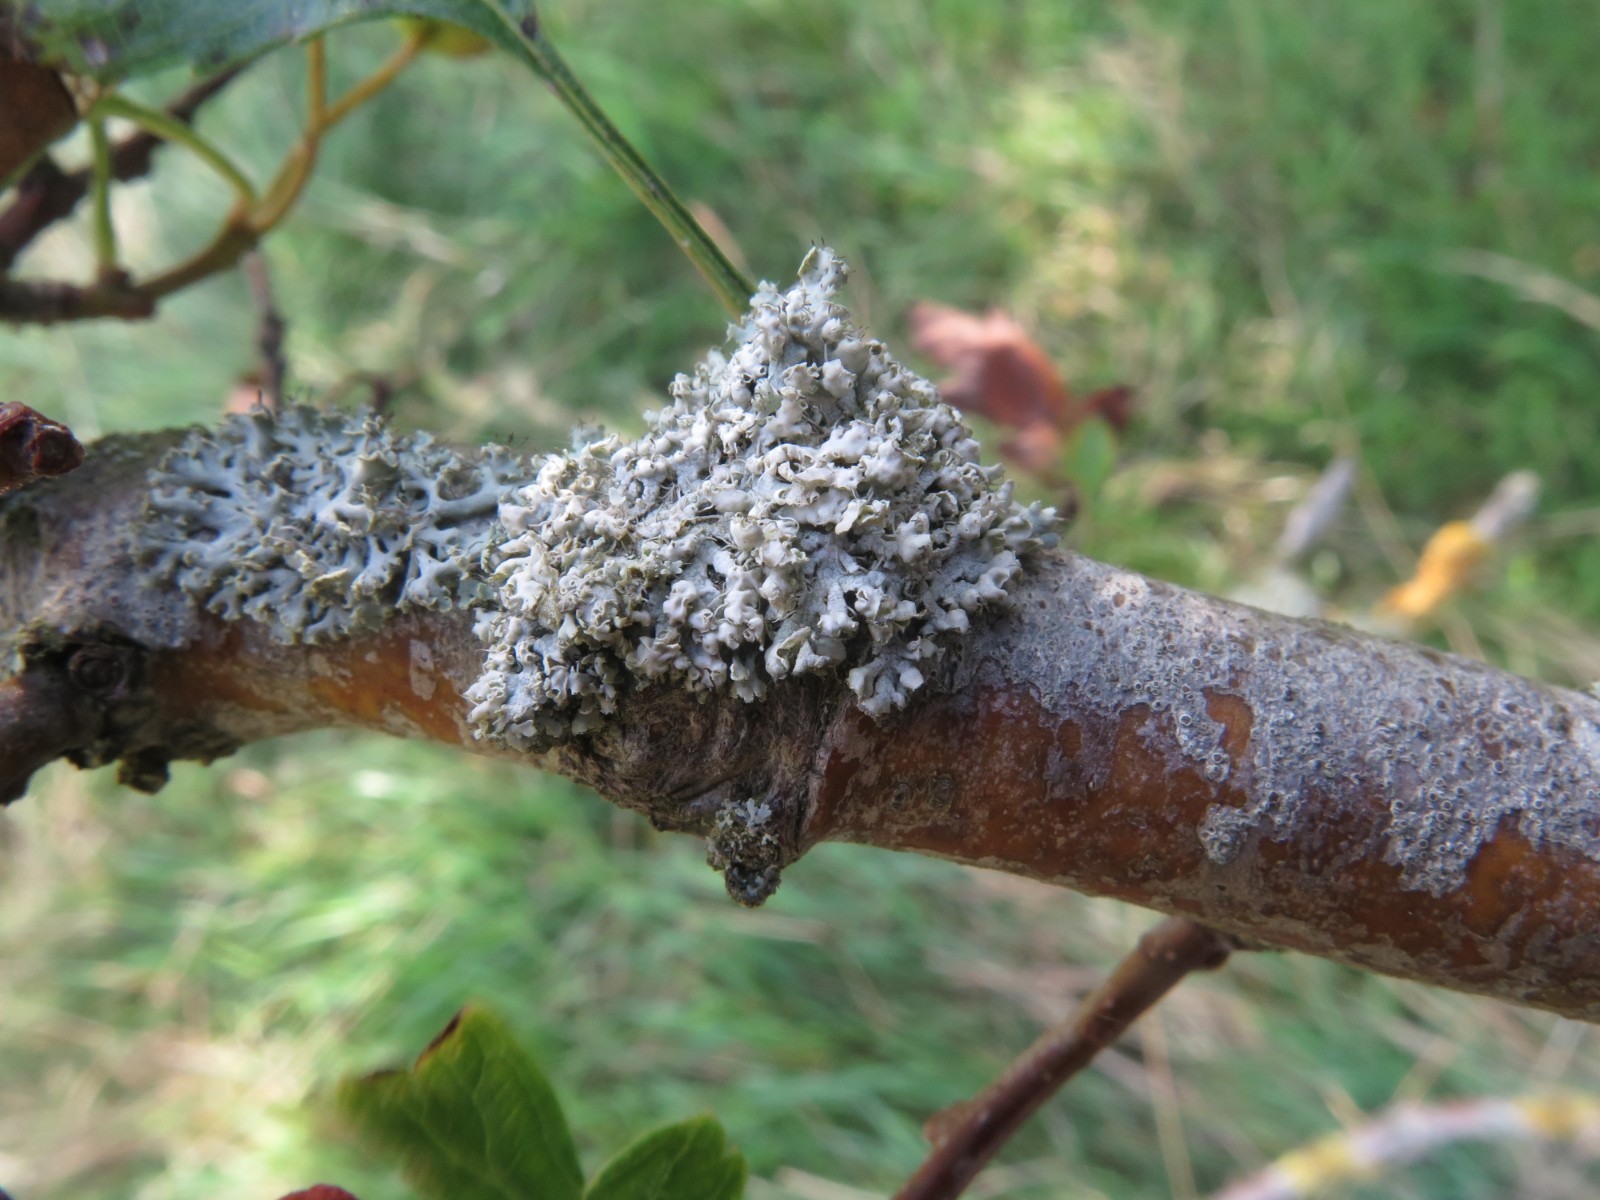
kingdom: Fungi
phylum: Ascomycota
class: Lecanoromycetes
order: Caliciales
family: Physciaceae
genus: Physcia
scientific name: Physcia adscendens
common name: hætte-rosetlav
